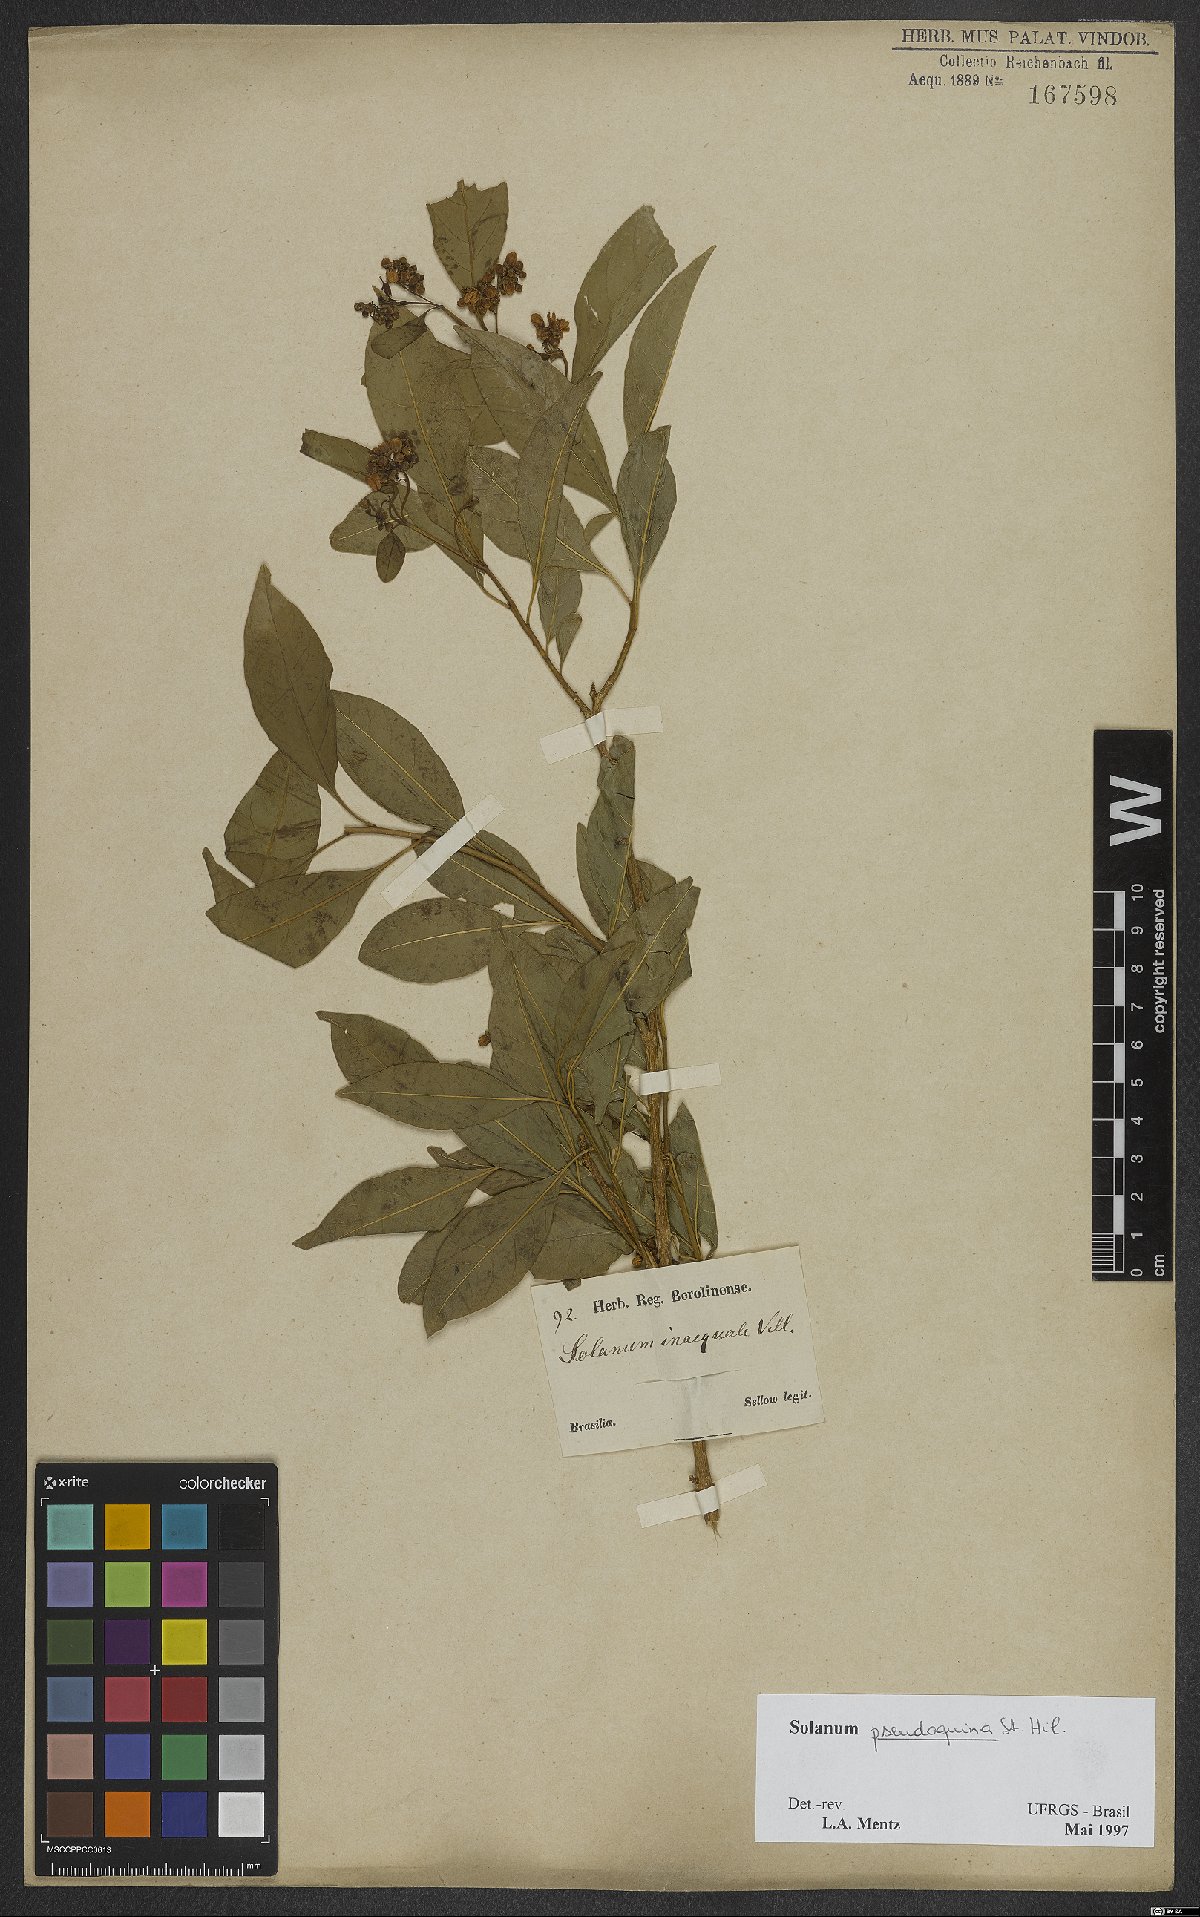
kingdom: Plantae
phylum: Tracheophyta
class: Magnoliopsida
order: Solanales
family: Solanaceae
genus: Solanum
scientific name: Solanum pseudoquina
